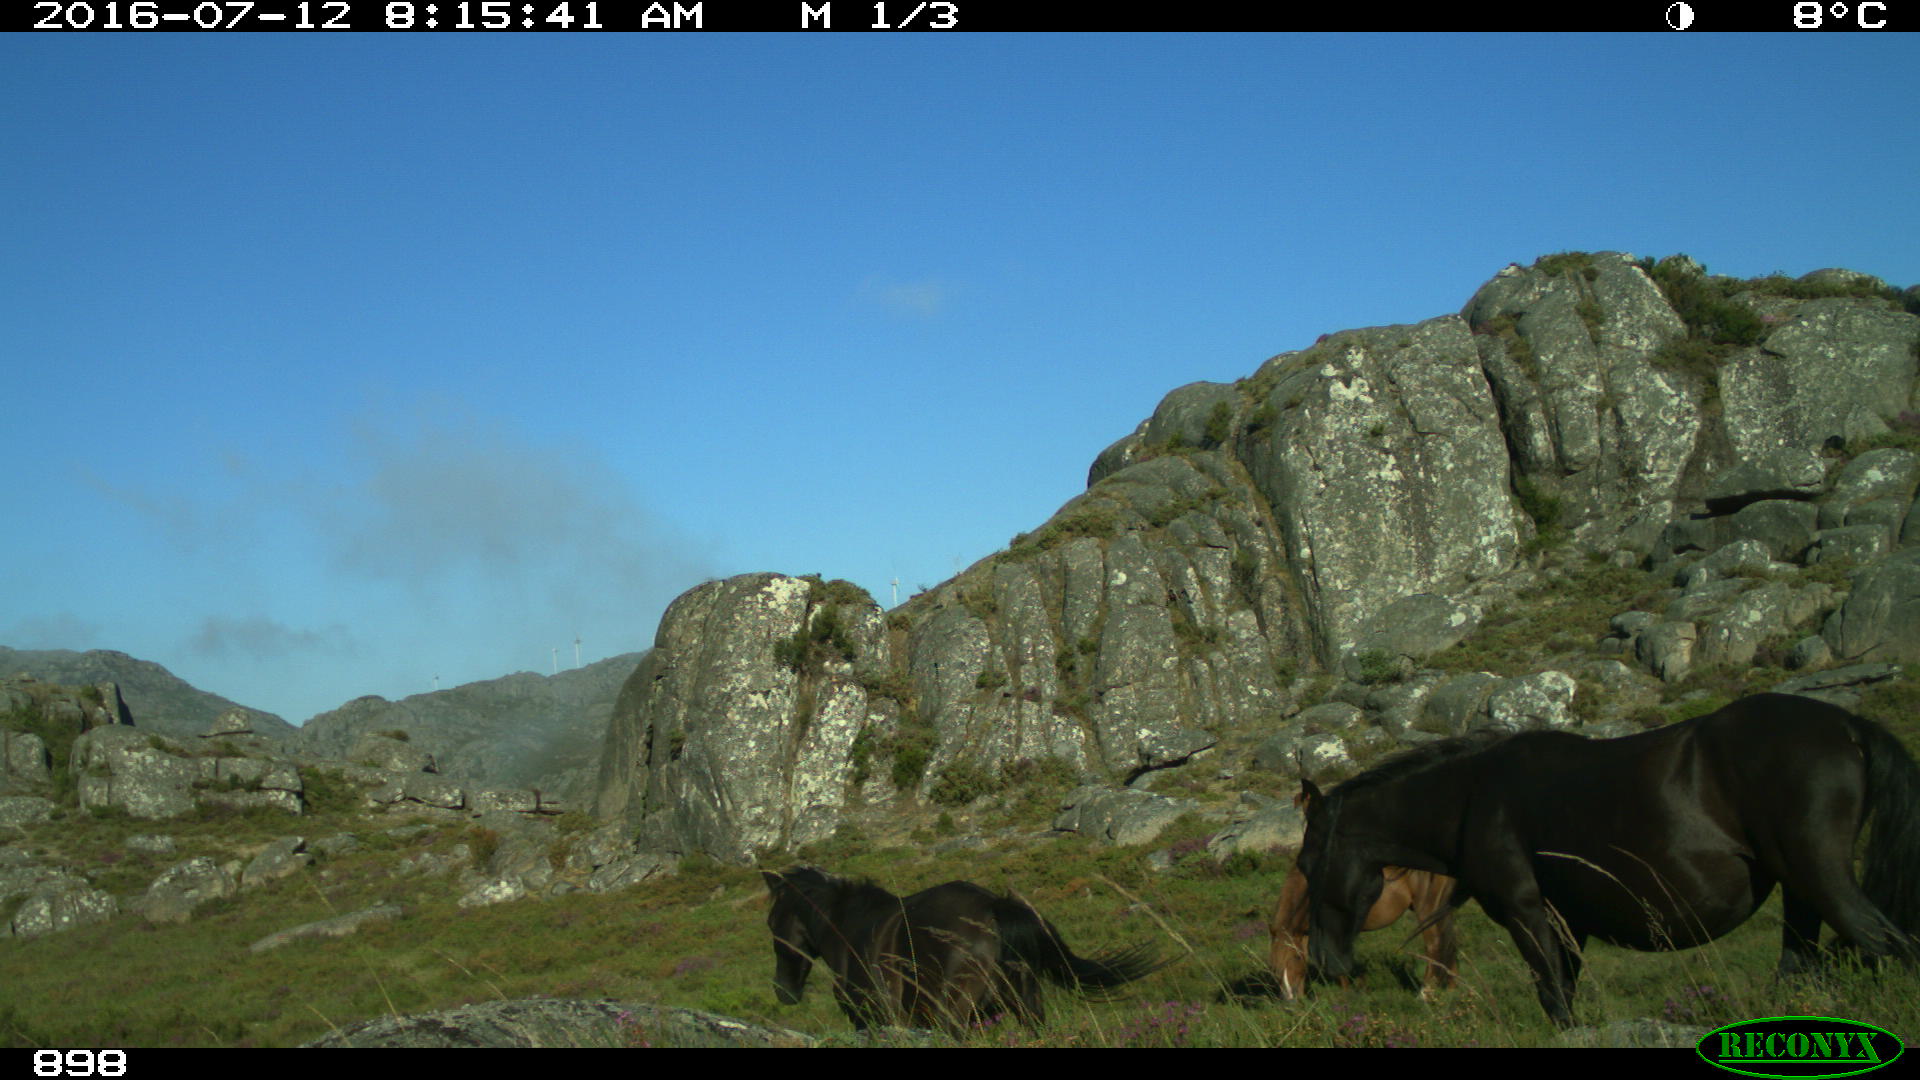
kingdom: Animalia
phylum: Chordata
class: Mammalia
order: Perissodactyla
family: Equidae
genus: Equus
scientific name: Equus caballus
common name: Horse
